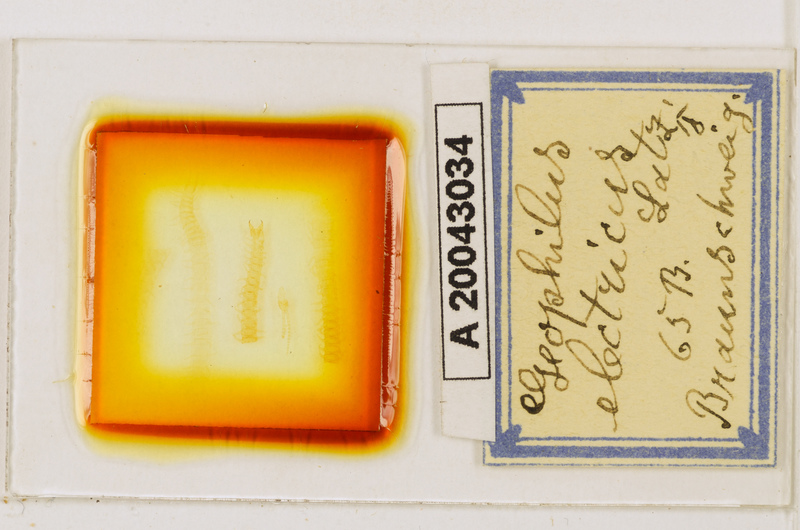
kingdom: Animalia
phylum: Arthropoda
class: Chilopoda
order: Geophilomorpha
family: Geophilidae
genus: Geophilus
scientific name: Geophilus electricus
